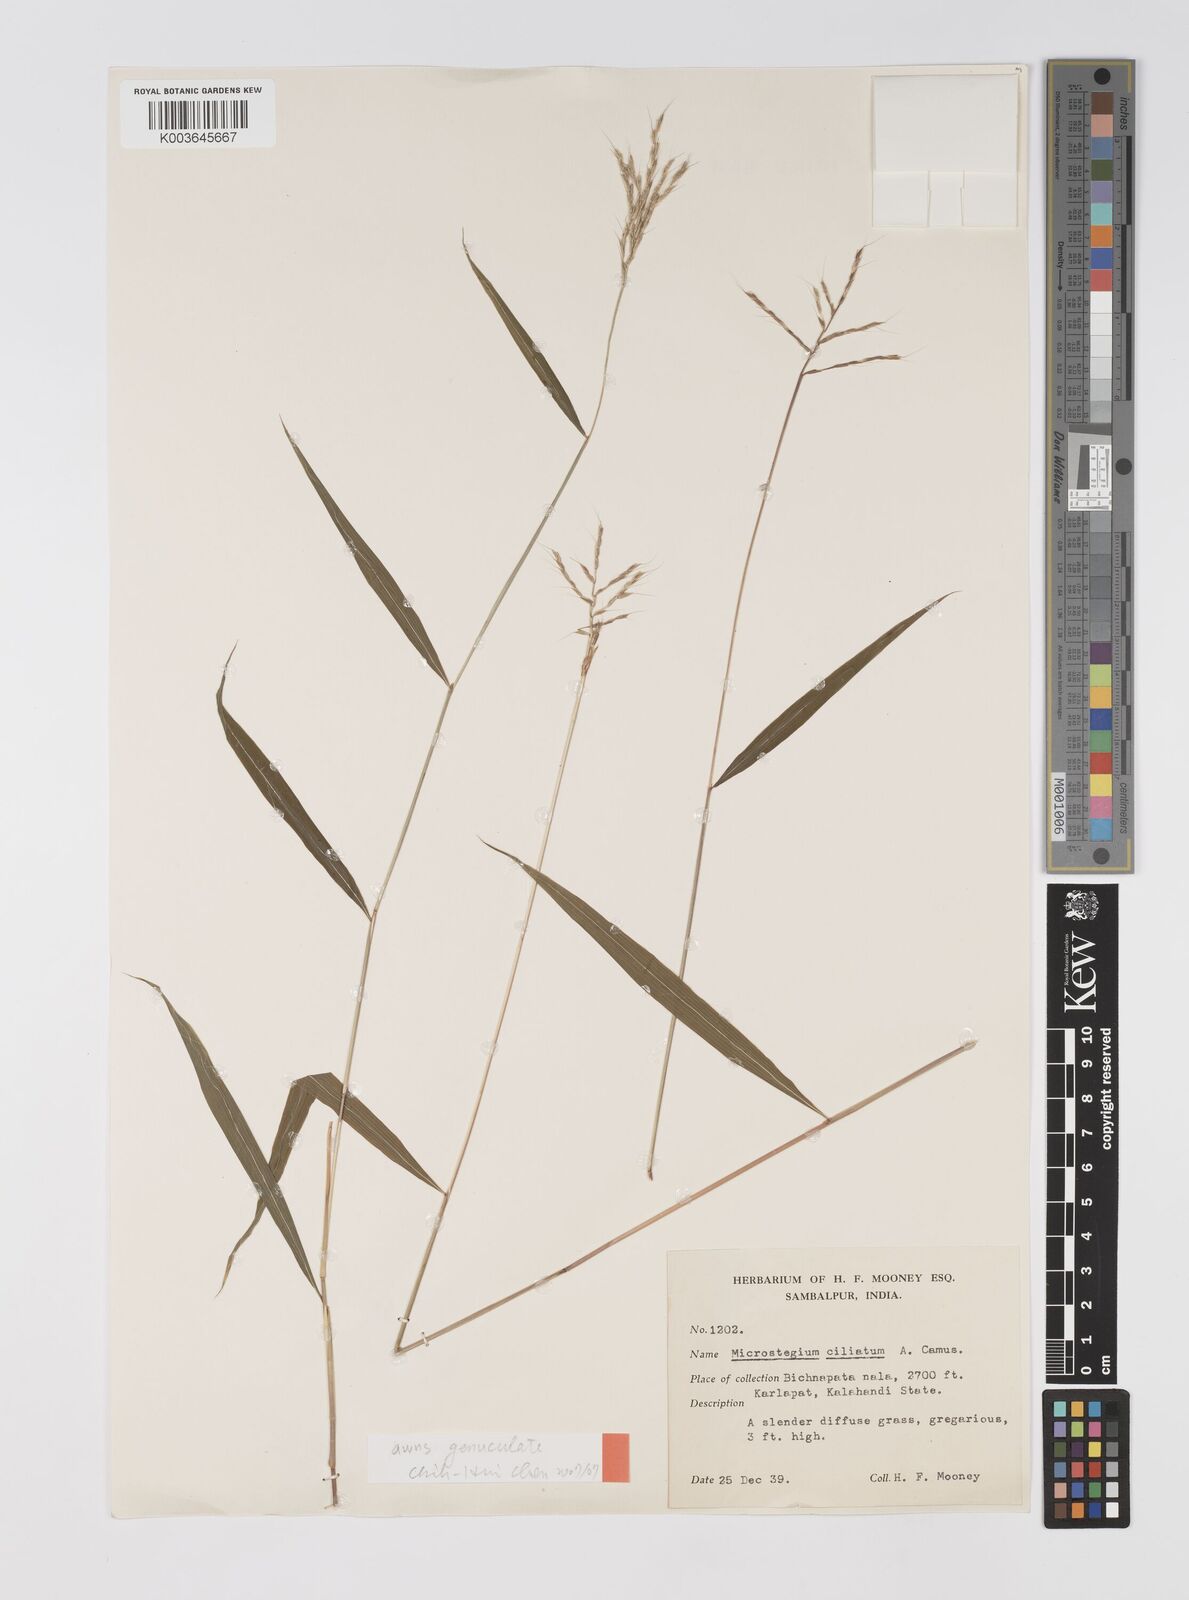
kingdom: Plantae
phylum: Tracheophyta
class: Liliopsida
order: Poales
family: Poaceae
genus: Microstegium
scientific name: Microstegium fasciculatum
